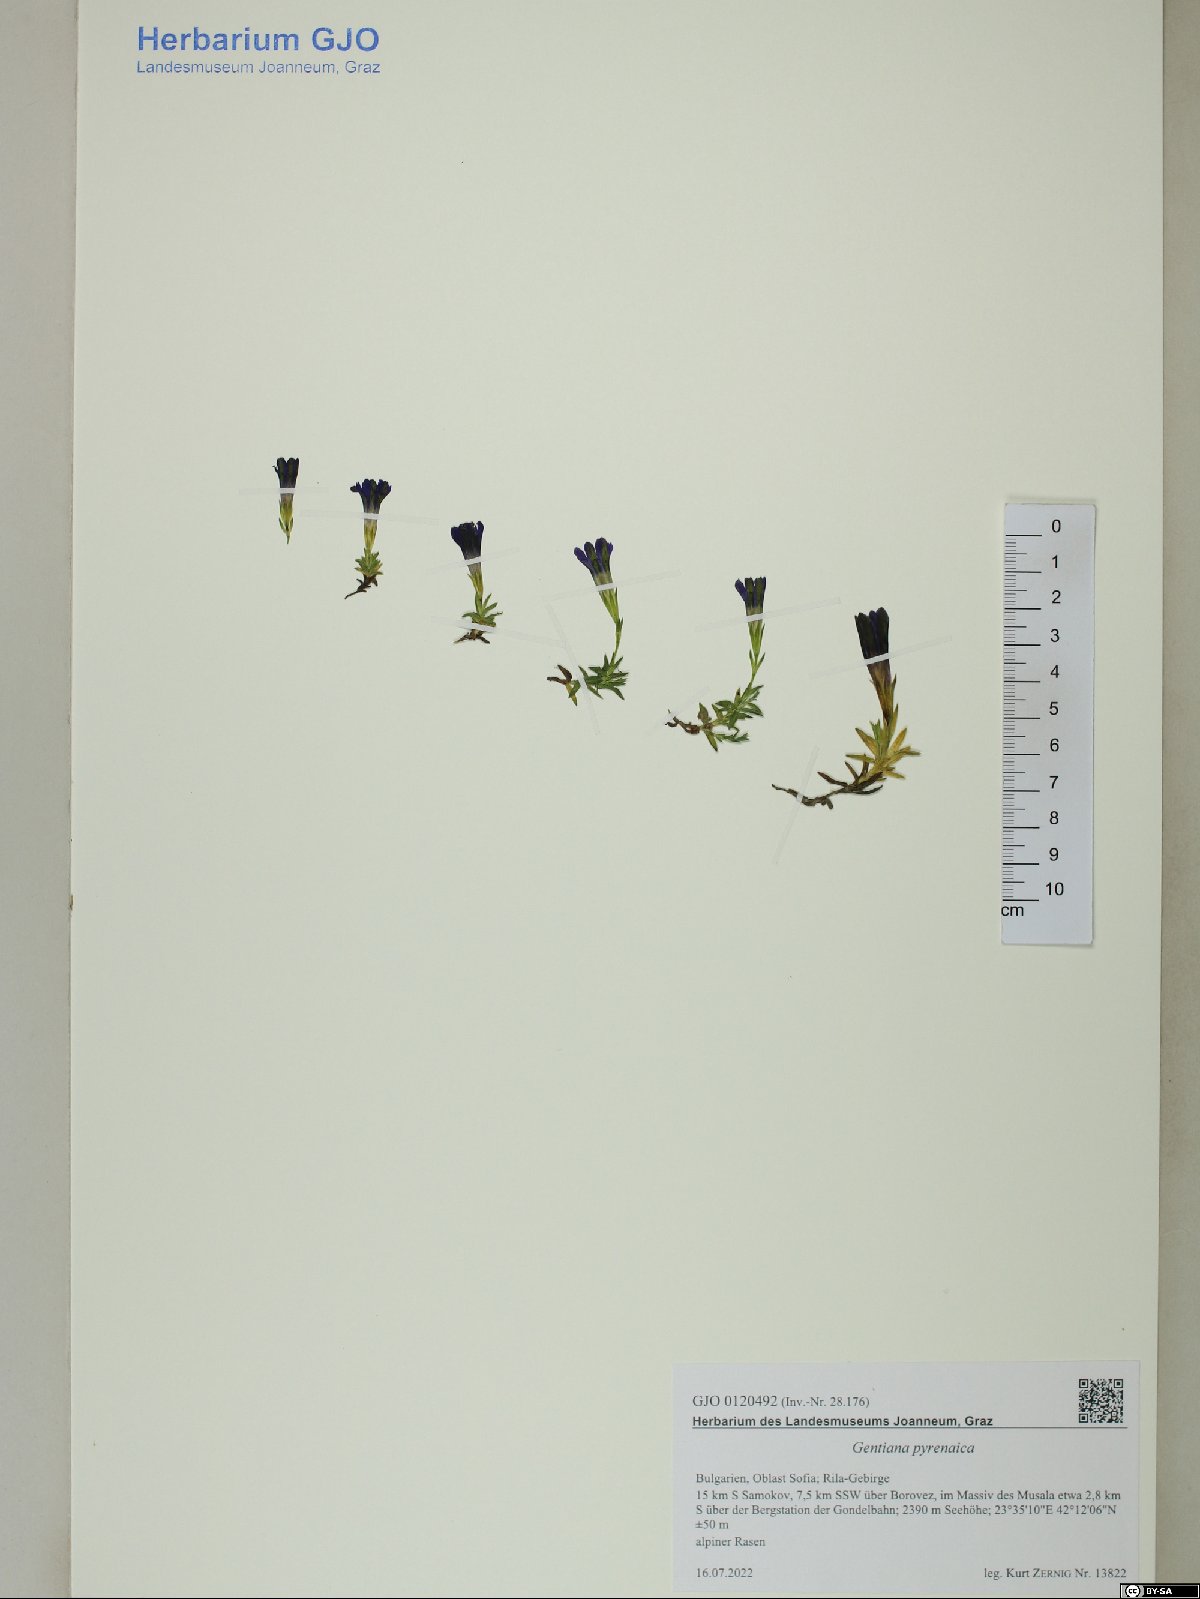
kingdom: Plantae
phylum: Tracheophyta
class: Magnoliopsida
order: Gentianales
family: Gentianaceae
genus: Gentiana
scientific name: Gentiana pyrenaica
